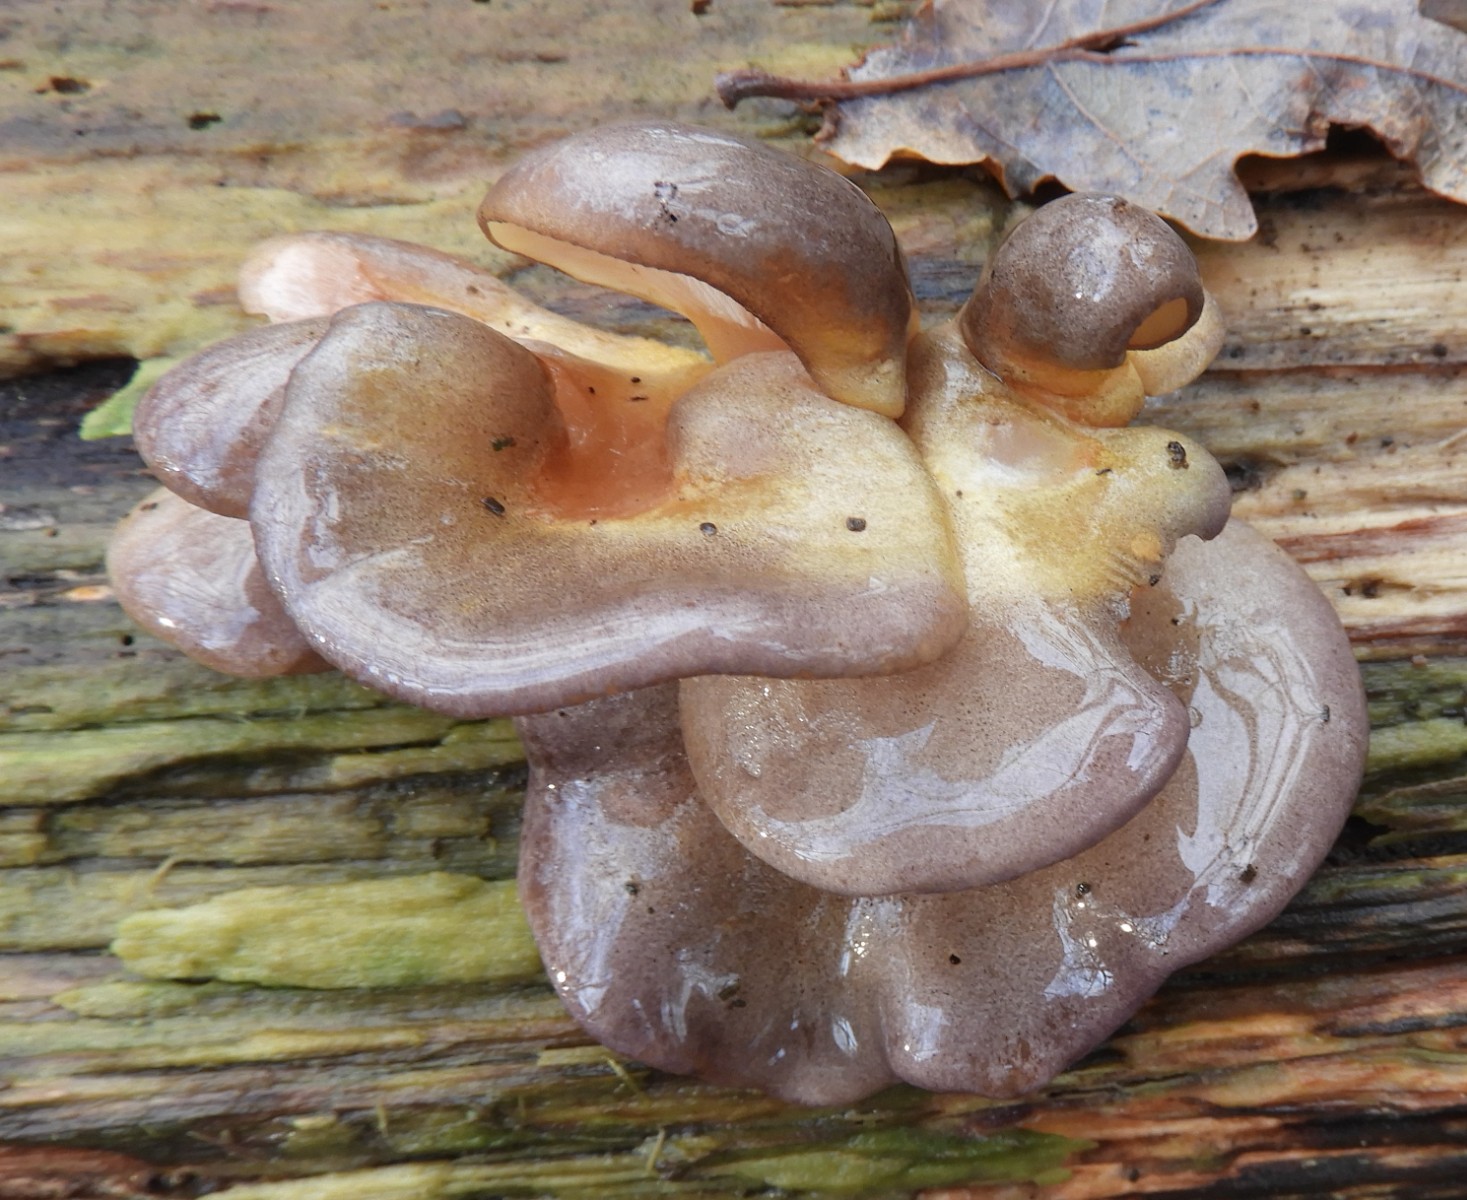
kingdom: Fungi
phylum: Basidiomycota
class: Agaricomycetes
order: Agaricales
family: Sarcomyxaceae
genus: Sarcomyxa
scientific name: Sarcomyxa serotina
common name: gummihat
